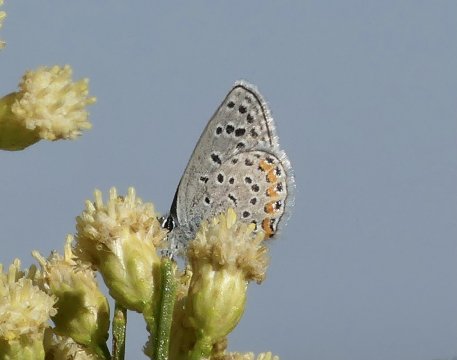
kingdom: Animalia
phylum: Arthropoda
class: Insecta
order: Lepidoptera
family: Lycaenidae
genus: Plebejus
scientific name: Plebejus acmon
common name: Acmon Blue
